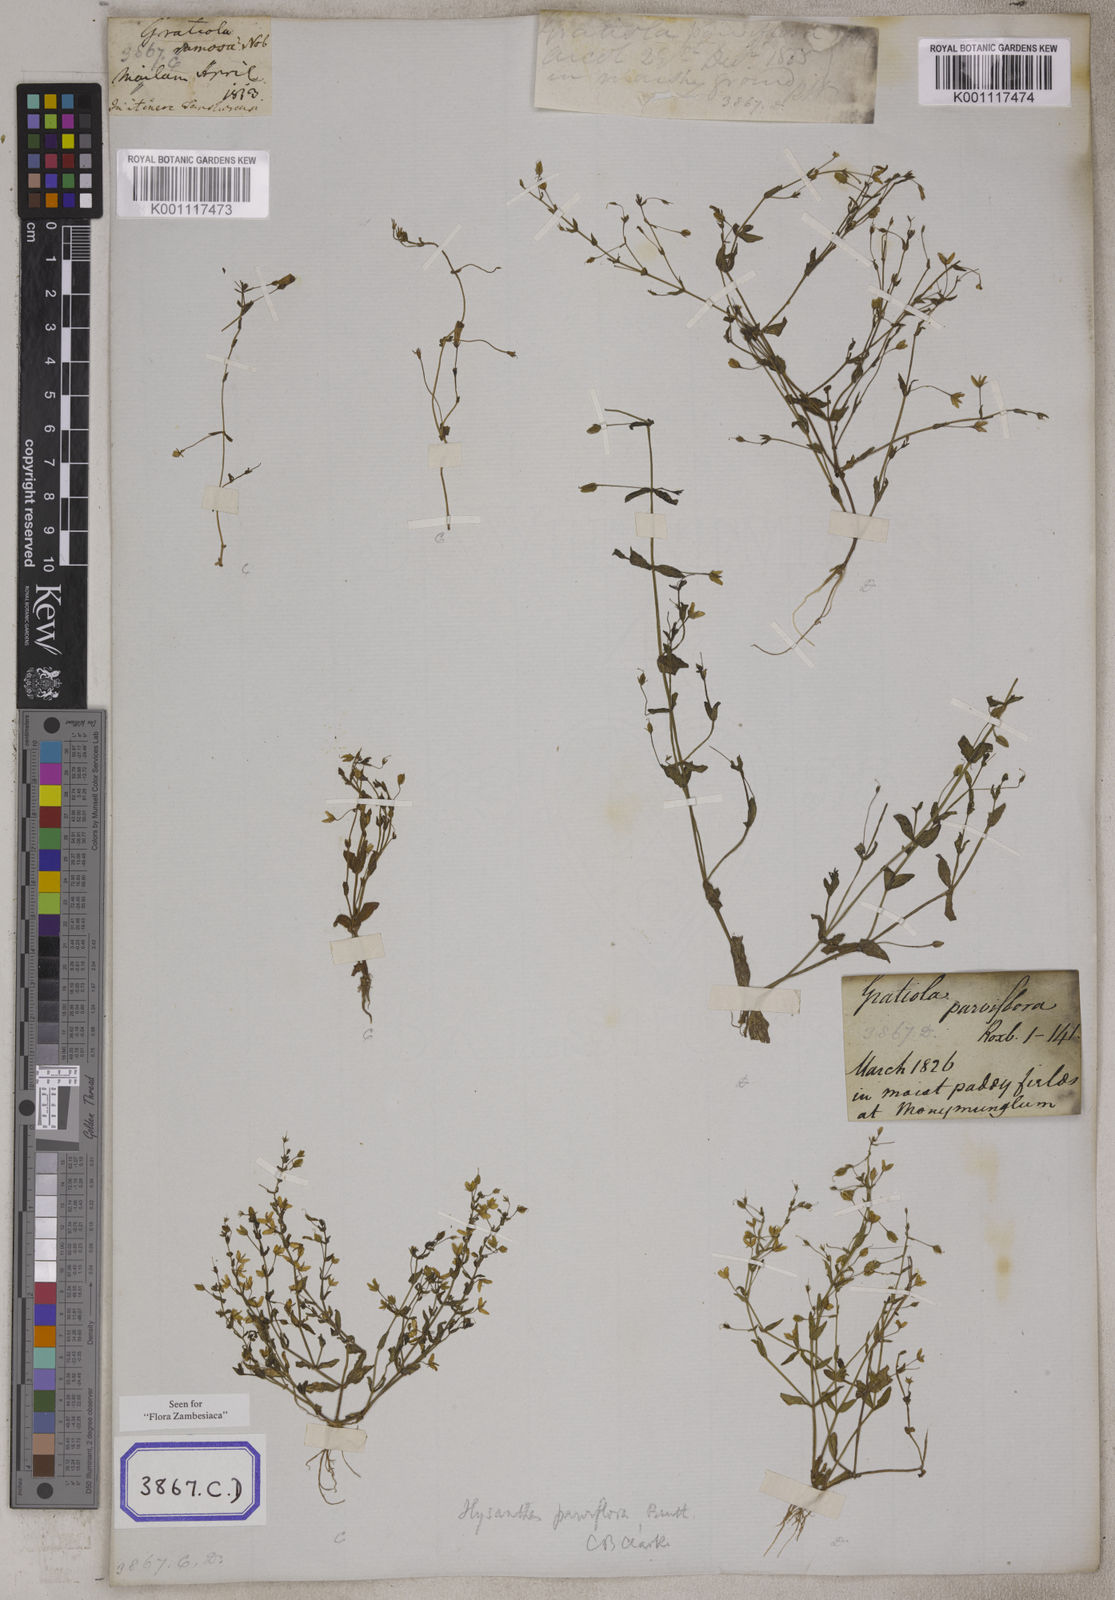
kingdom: Plantae
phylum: Tracheophyta
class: Magnoliopsida
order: Lamiales
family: Linderniaceae
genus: Lindernia
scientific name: Lindernia parviflora
